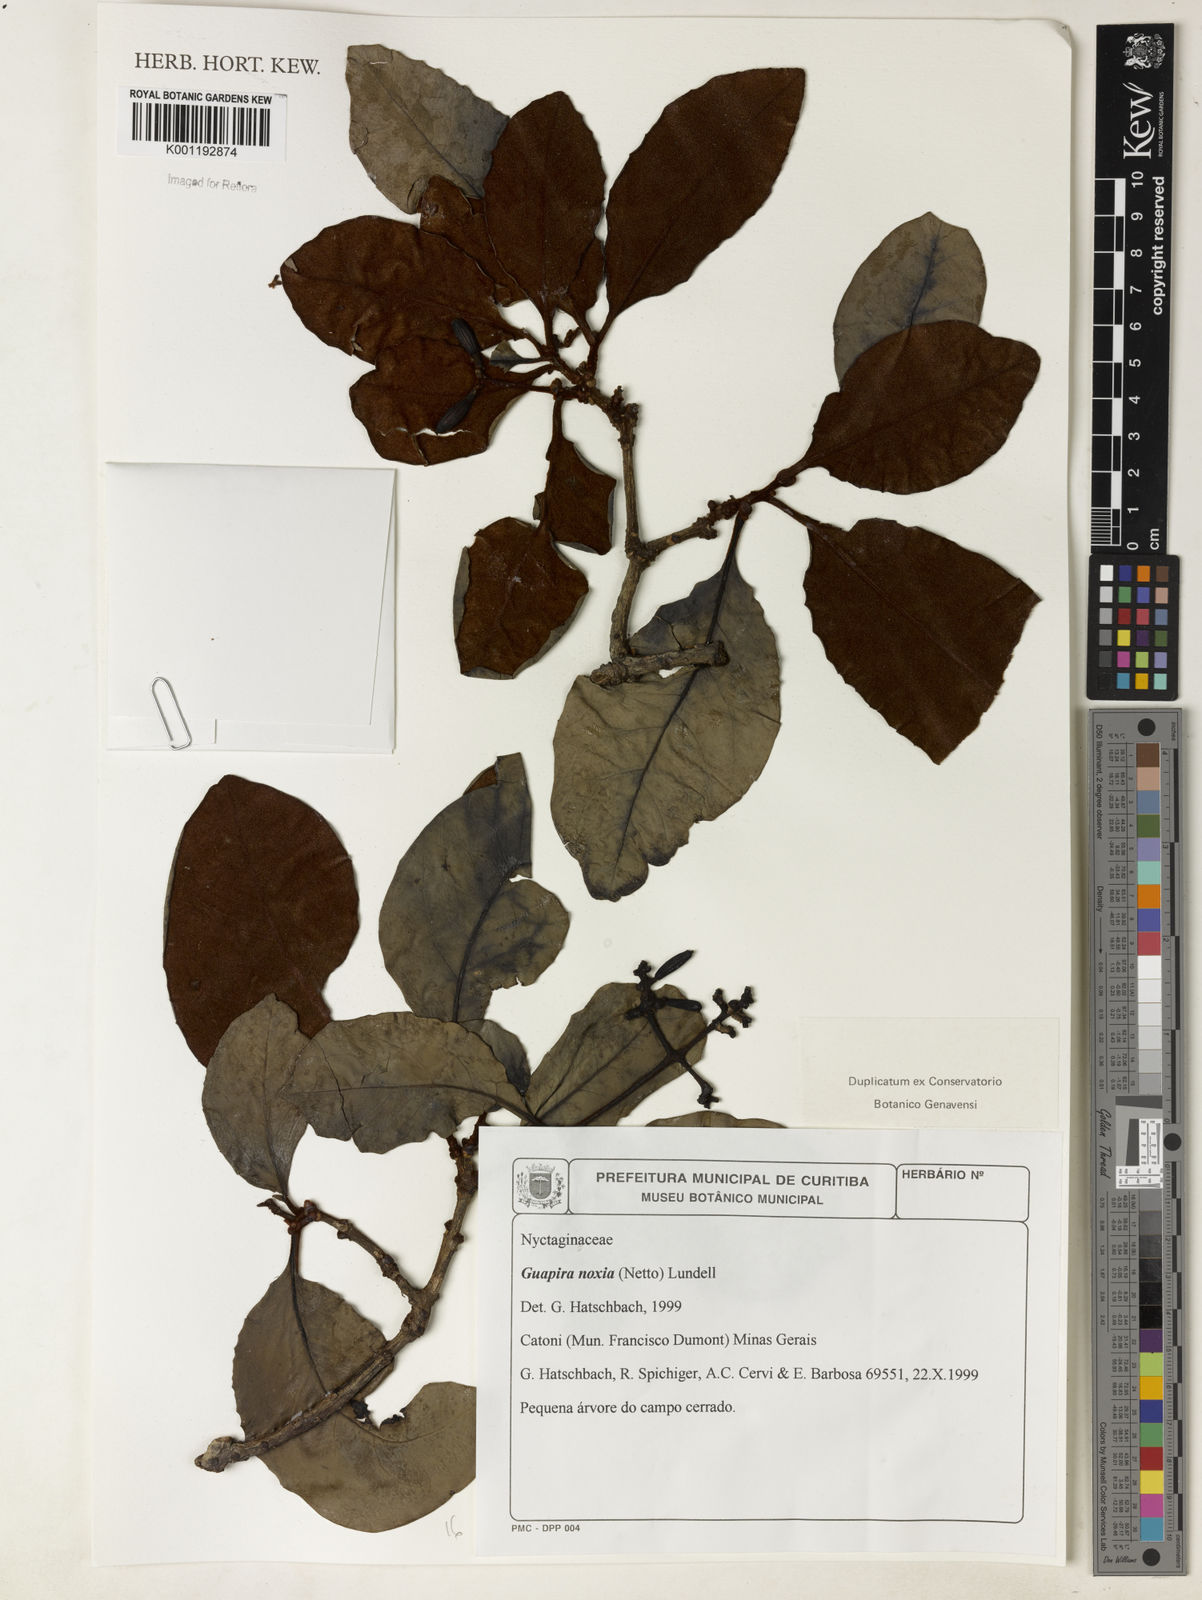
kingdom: Plantae
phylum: Tracheophyta
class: Magnoliopsida
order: Caryophyllales
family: Nyctaginaceae
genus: Guapira
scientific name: Guapira noxia
